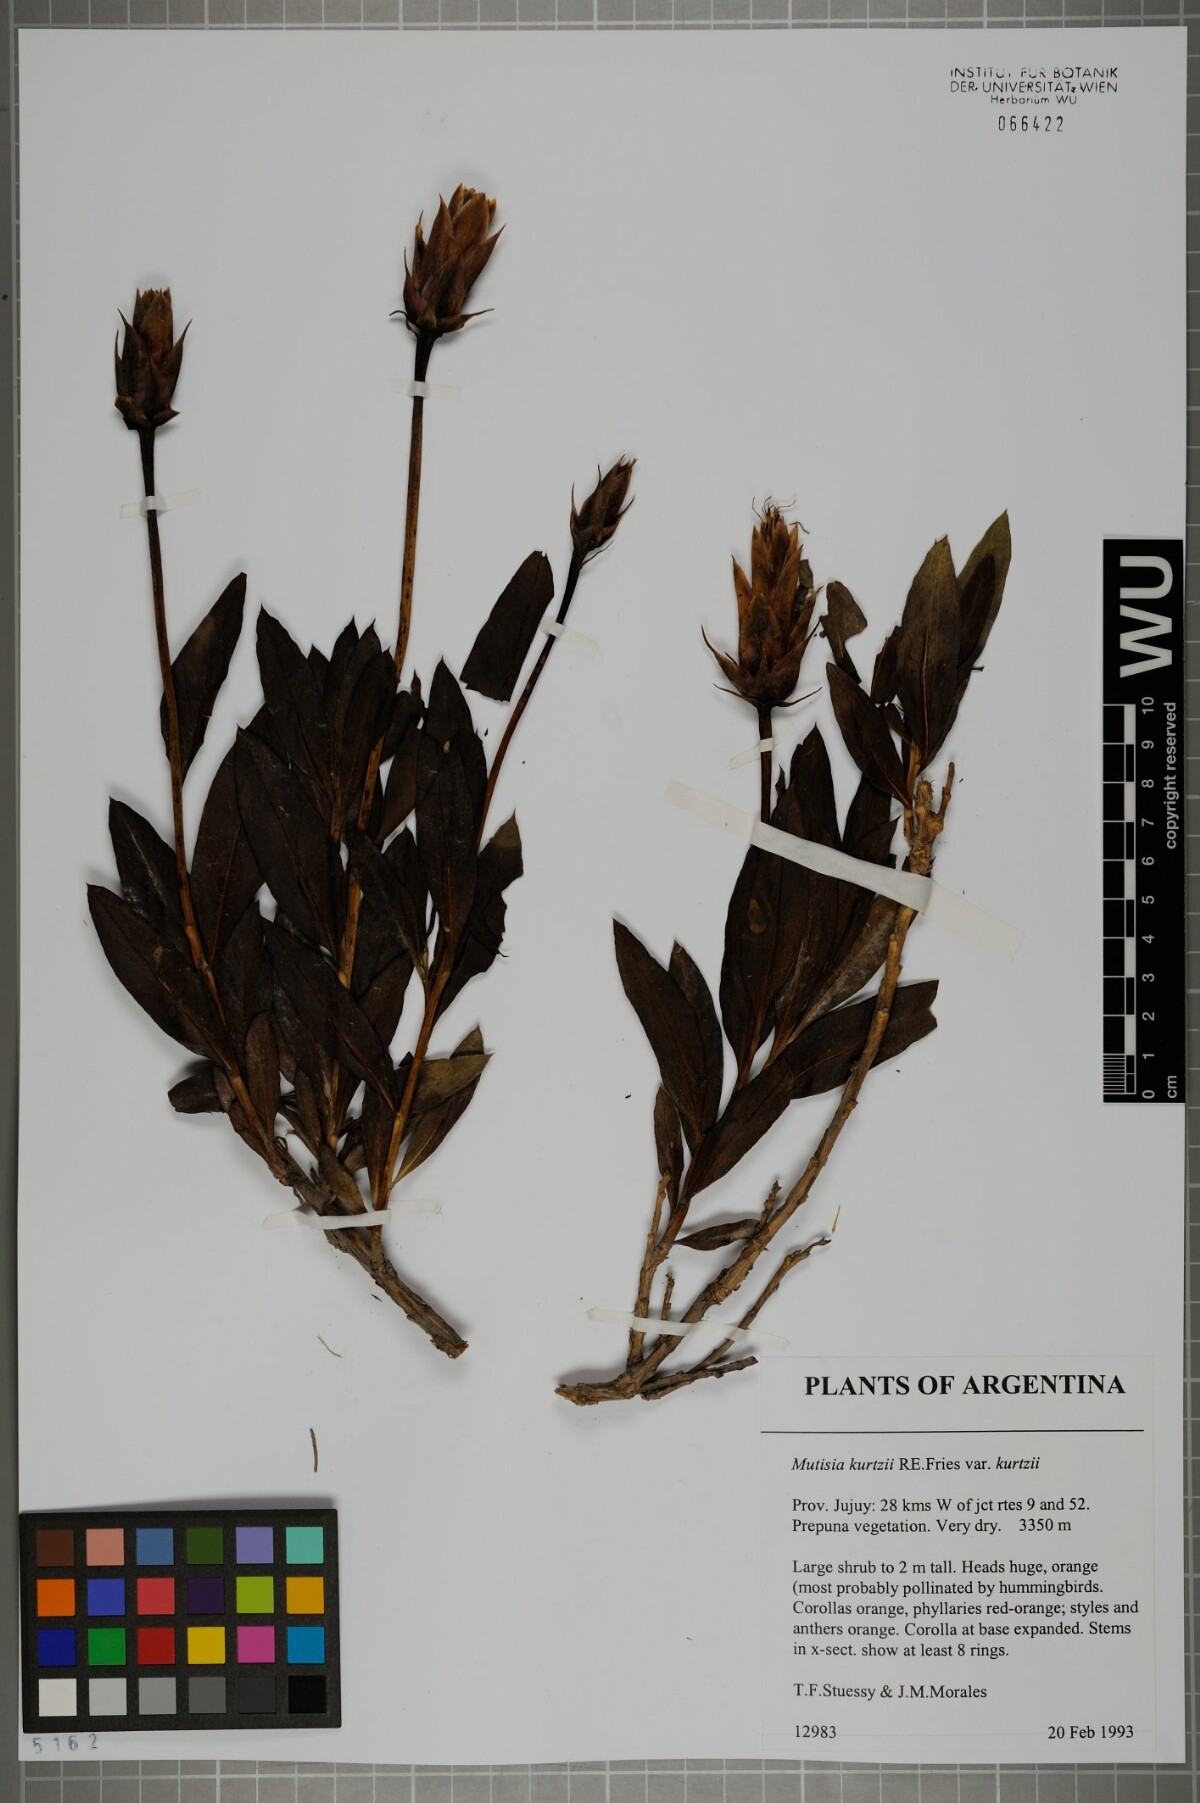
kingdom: Plantae
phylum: Tracheophyta
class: Magnoliopsida
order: Asterales
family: Asteraceae
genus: Mutisia
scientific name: Mutisia kurtzii
